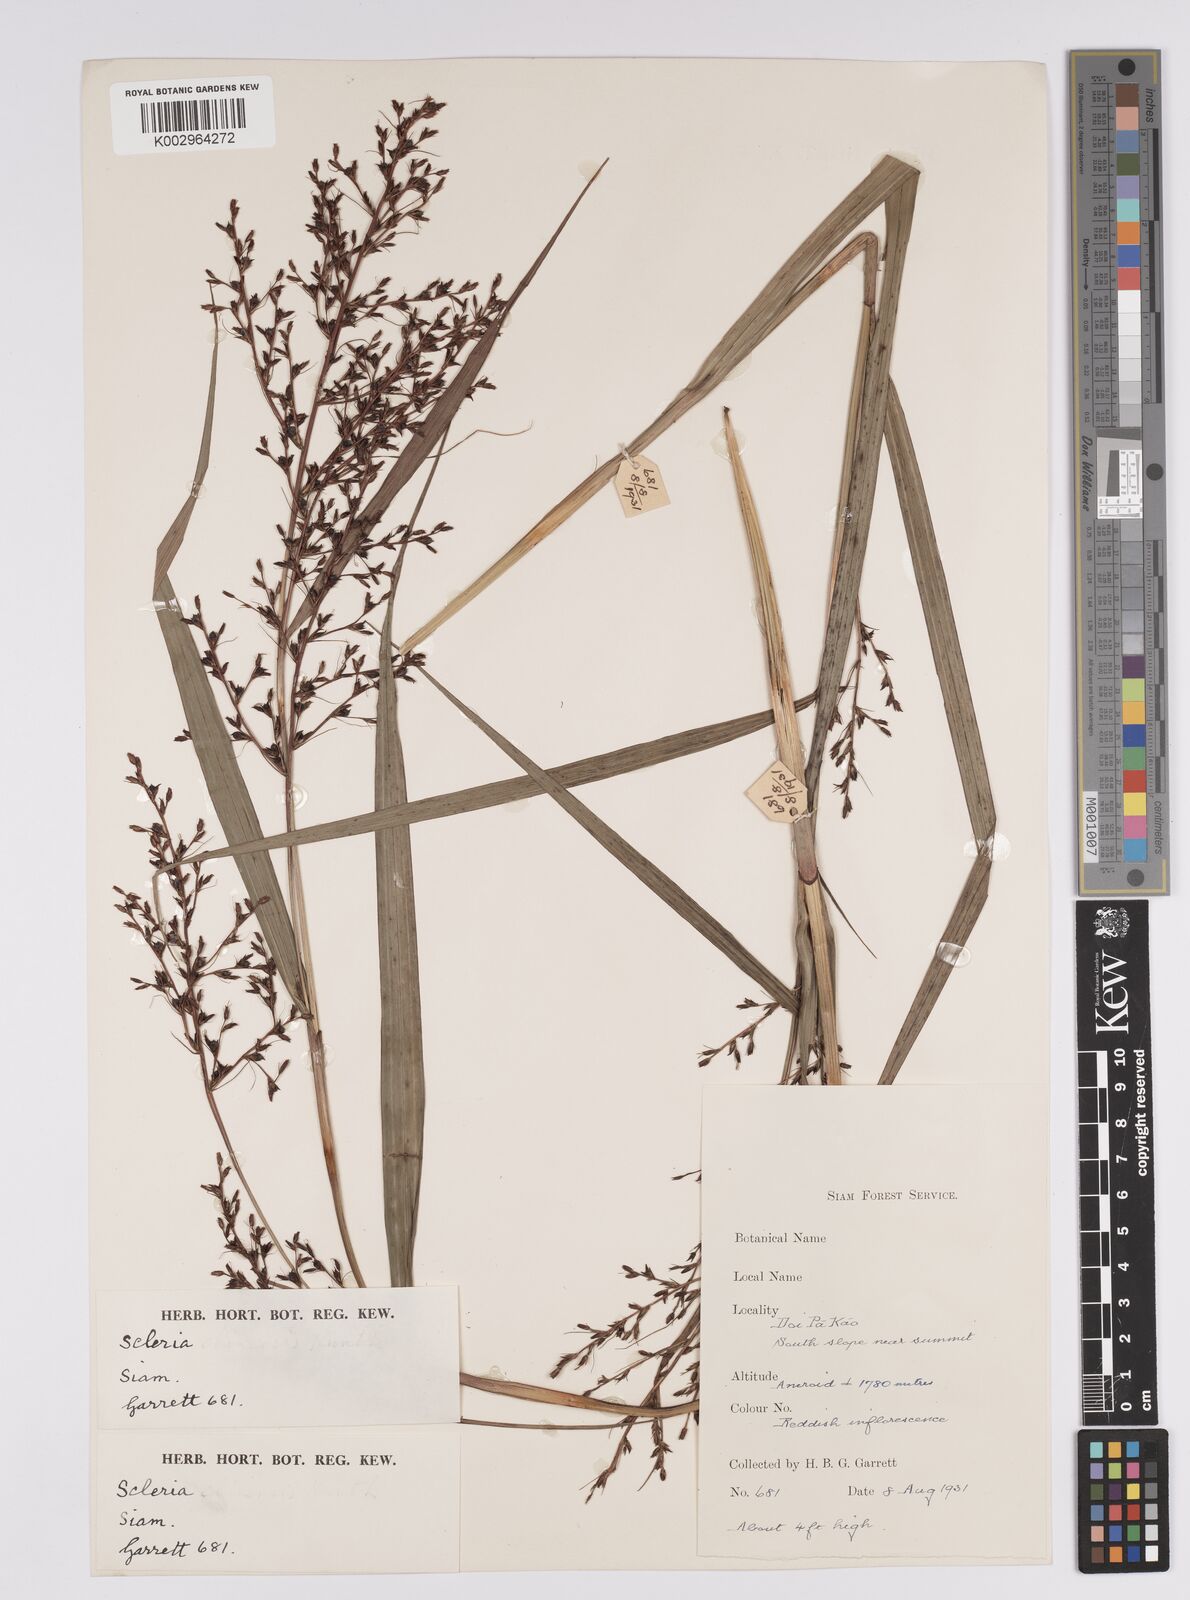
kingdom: Plantae
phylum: Tracheophyta
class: Liliopsida
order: Poales
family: Cyperaceae
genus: Scleria
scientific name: Scleria
